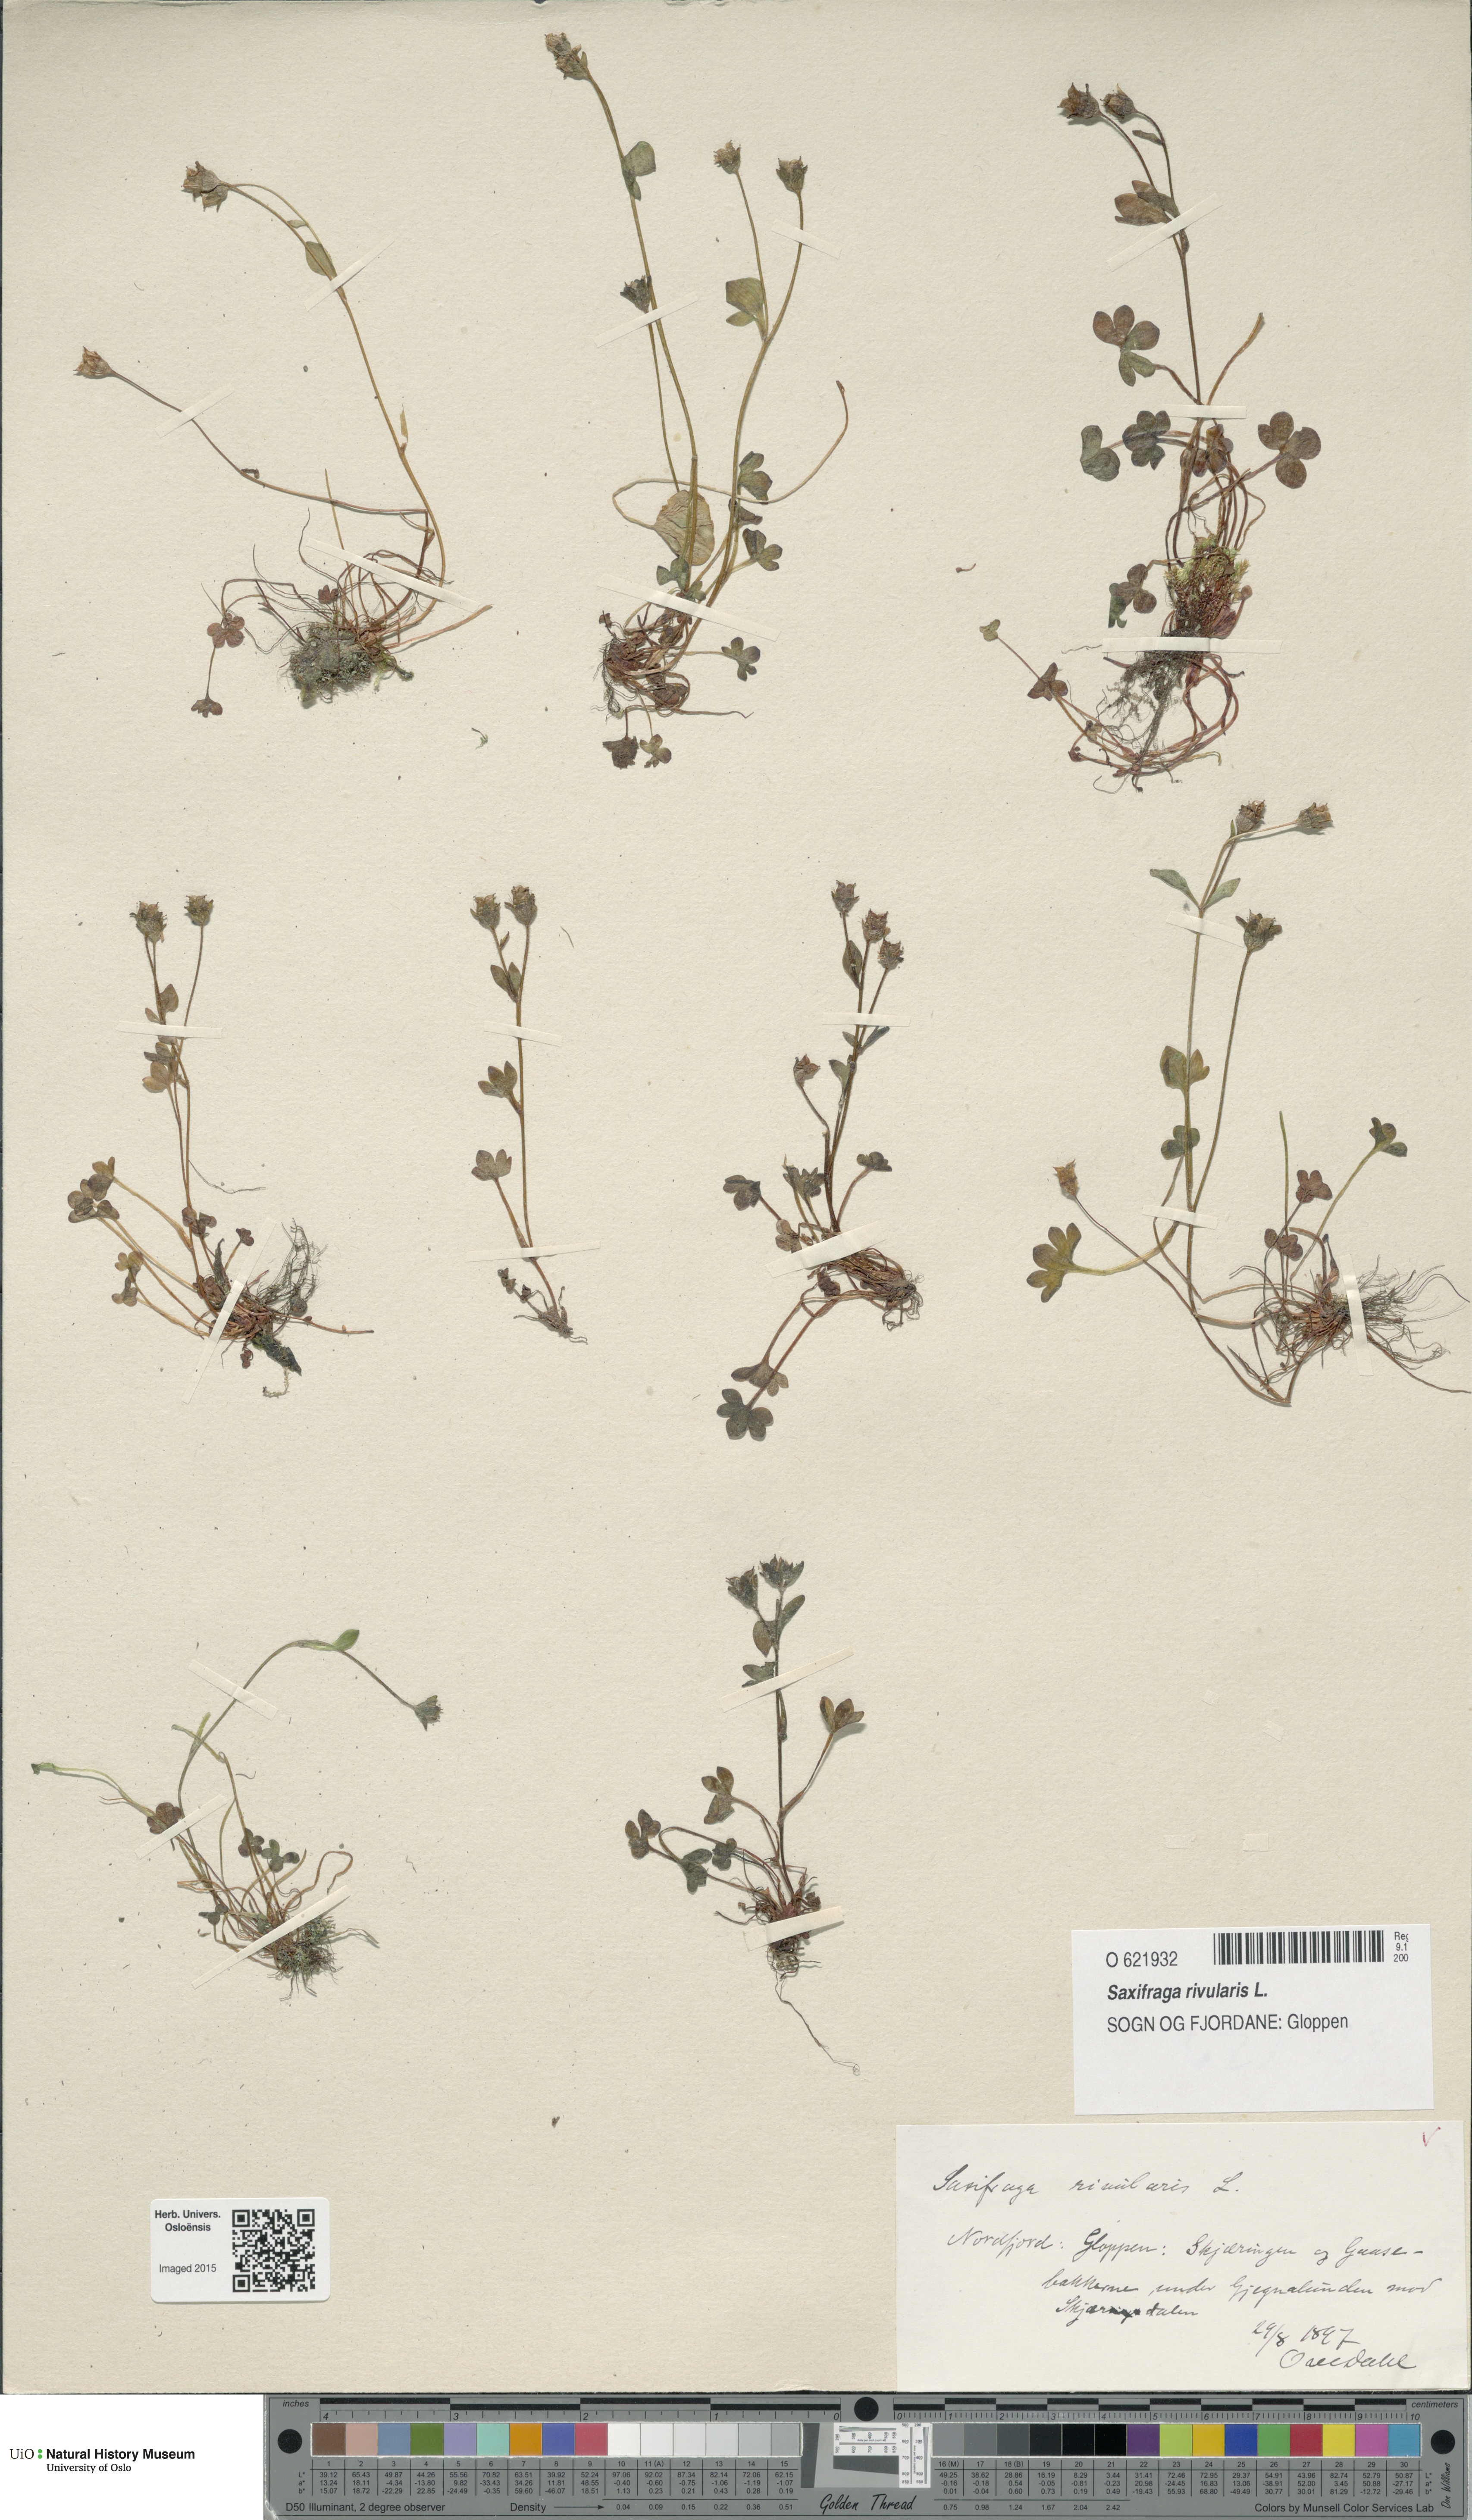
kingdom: Plantae
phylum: Tracheophyta
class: Magnoliopsida
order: Saxifragales
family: Saxifragaceae
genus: Saxifraga
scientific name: Saxifraga rivularis
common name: Highland saxifrage
